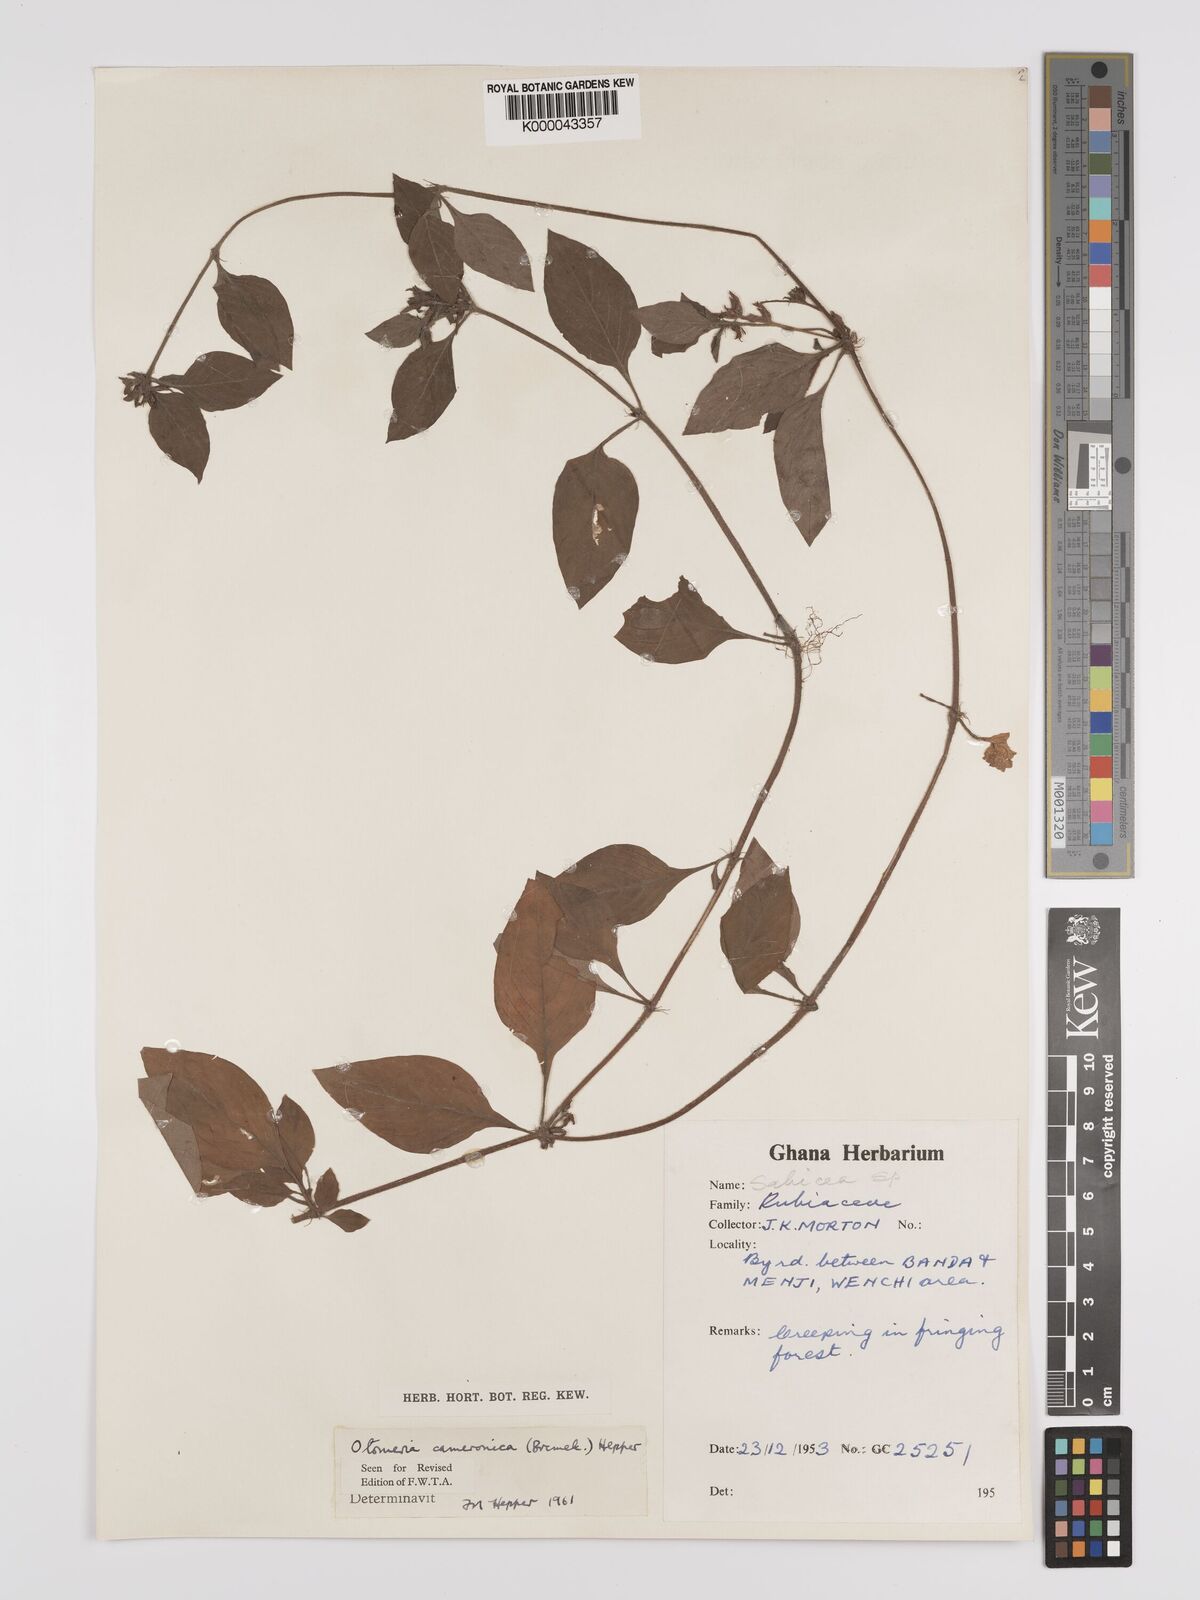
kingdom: Plantae
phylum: Tracheophyta
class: Magnoliopsida
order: Gentianales
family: Rubiaceae
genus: Otomeria
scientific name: Otomeria cameronica
